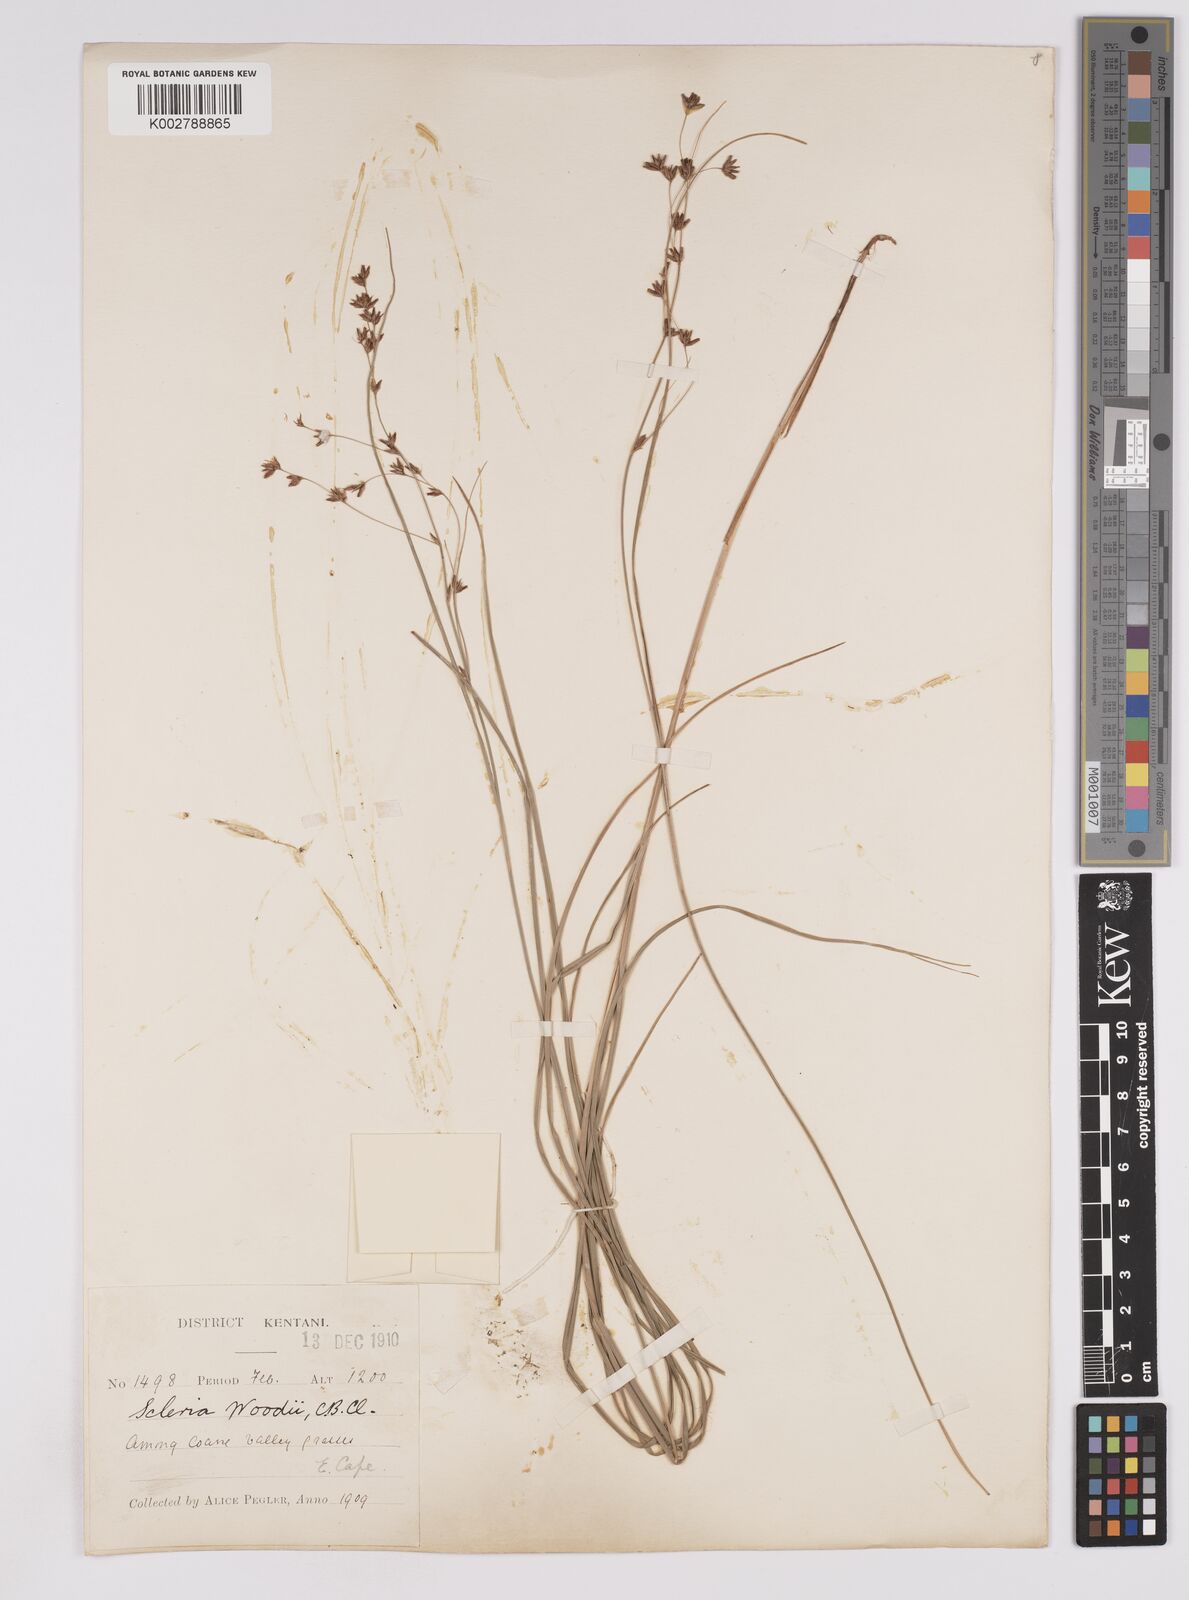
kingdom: Plantae
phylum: Tracheophyta
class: Liliopsida
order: Poales
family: Cyperaceae
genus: Scleria
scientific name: Scleria woodii
